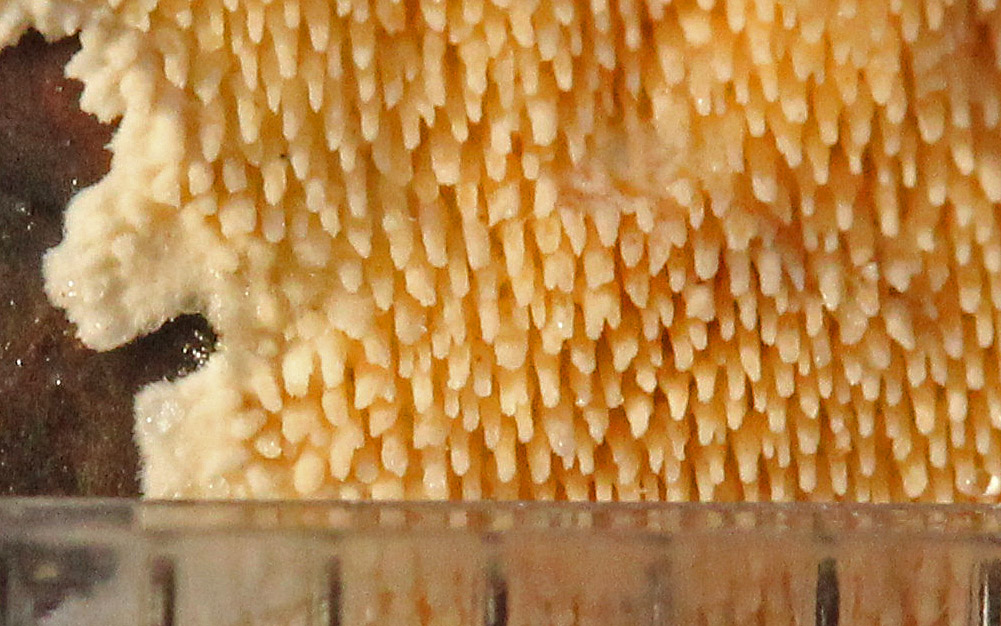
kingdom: Fungi
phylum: Basidiomycota
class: Agaricomycetes
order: Polyporales
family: Steccherinaceae
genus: Steccherinum
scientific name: Steccherinum ochraceum
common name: almindelig skønpig
